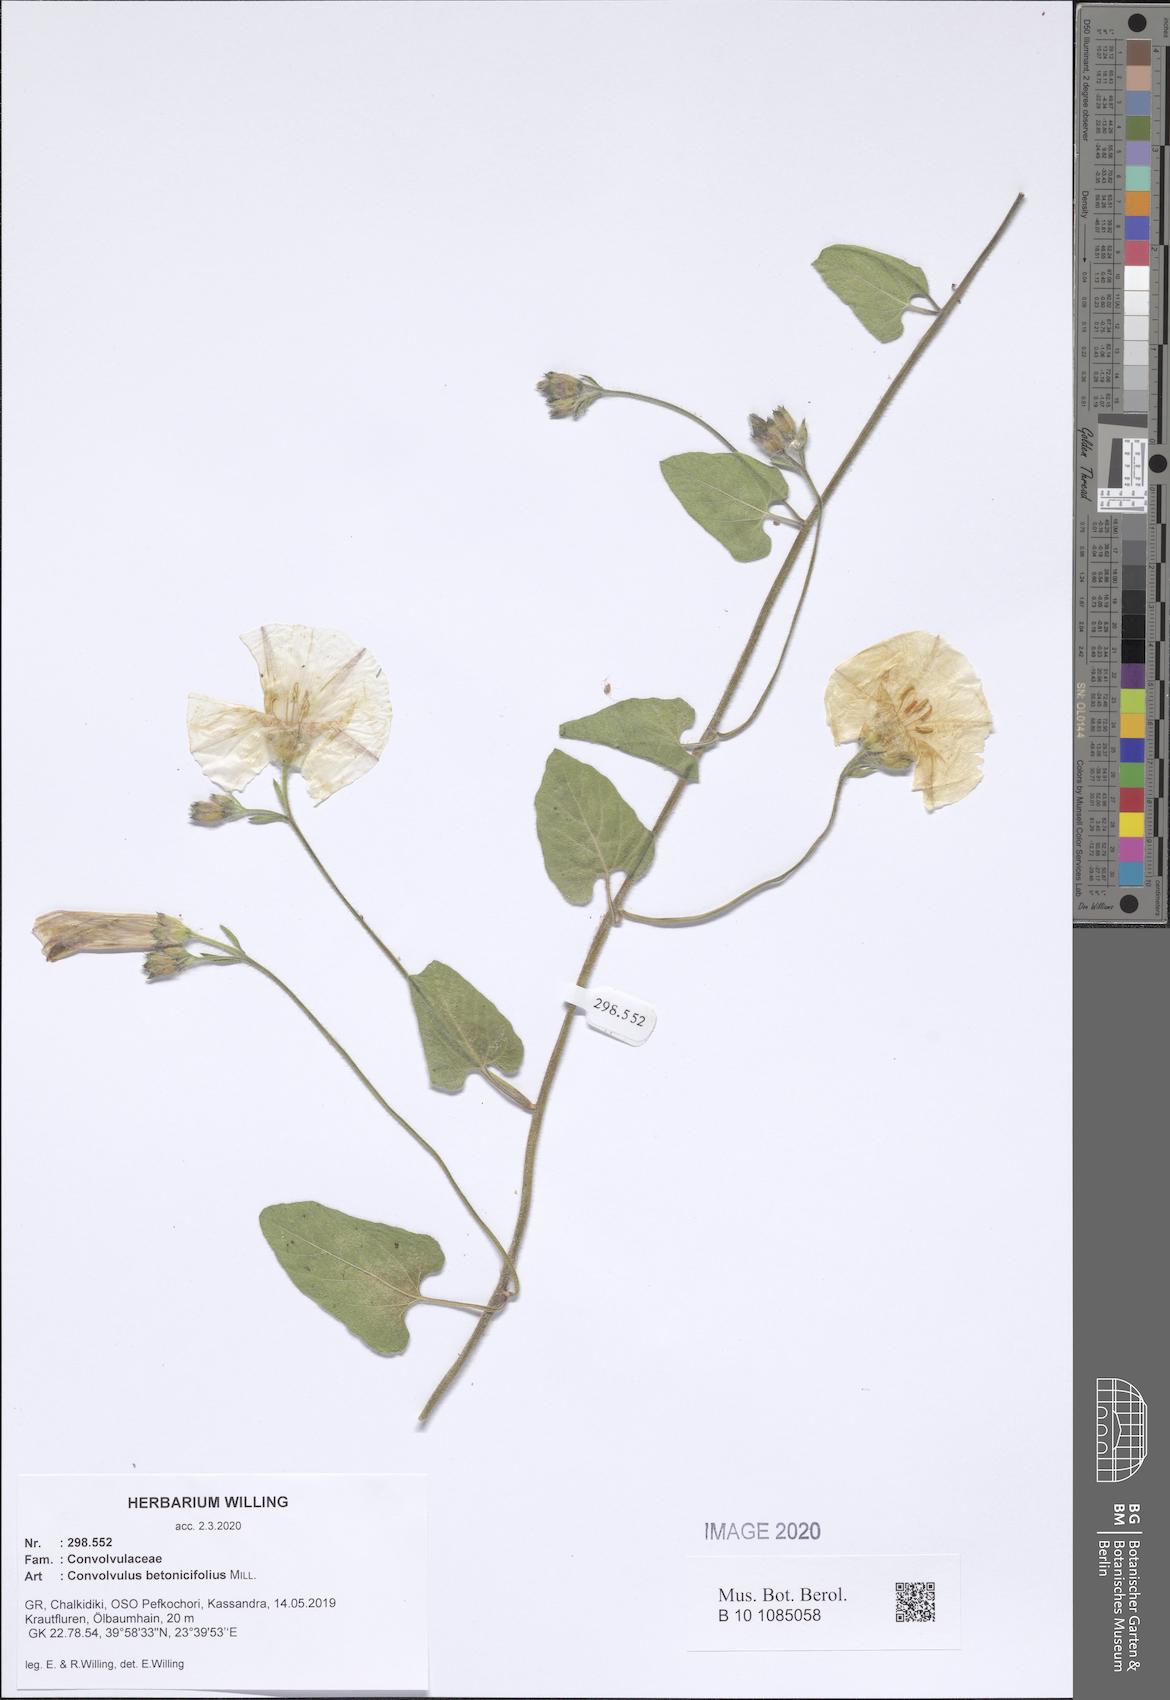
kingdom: Plantae
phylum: Tracheophyta
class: Magnoliopsida
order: Solanales
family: Convolvulaceae
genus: Convolvulus
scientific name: Convolvulus betonicifolius
